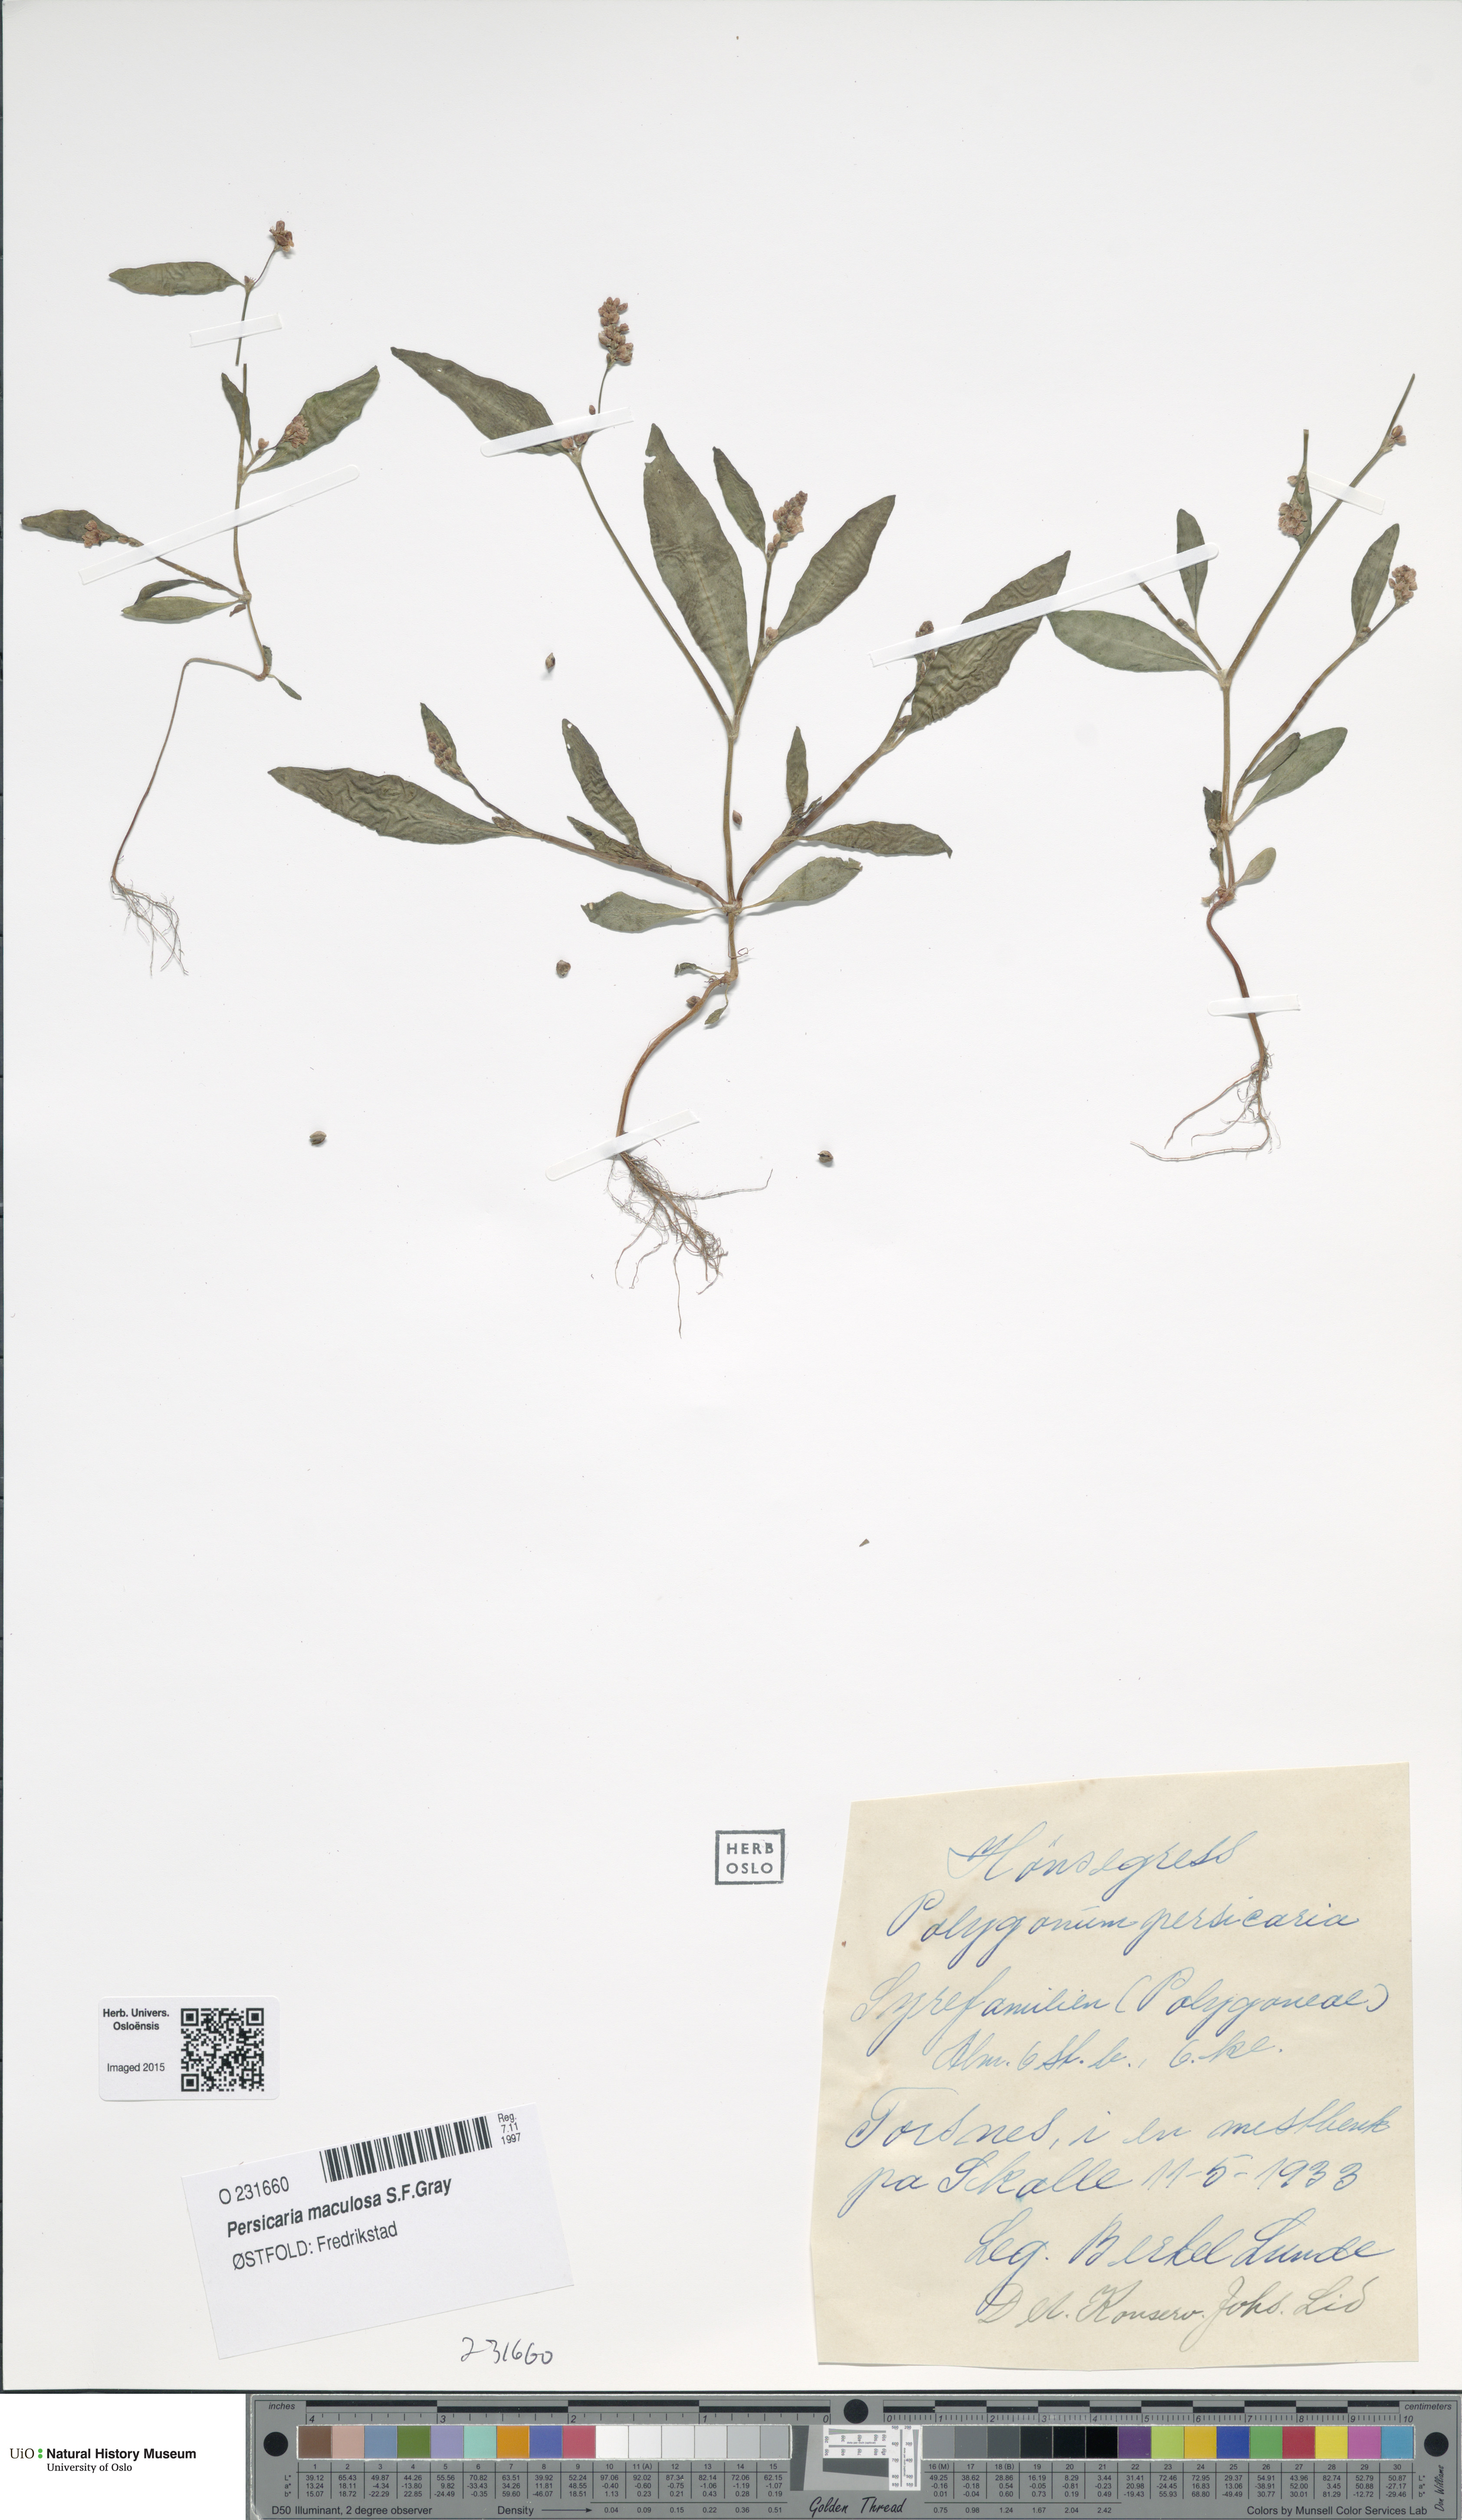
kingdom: Plantae
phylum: Tracheophyta
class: Magnoliopsida
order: Caryophyllales
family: Polygonaceae
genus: Persicaria
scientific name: Persicaria maculosa
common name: Redshank
